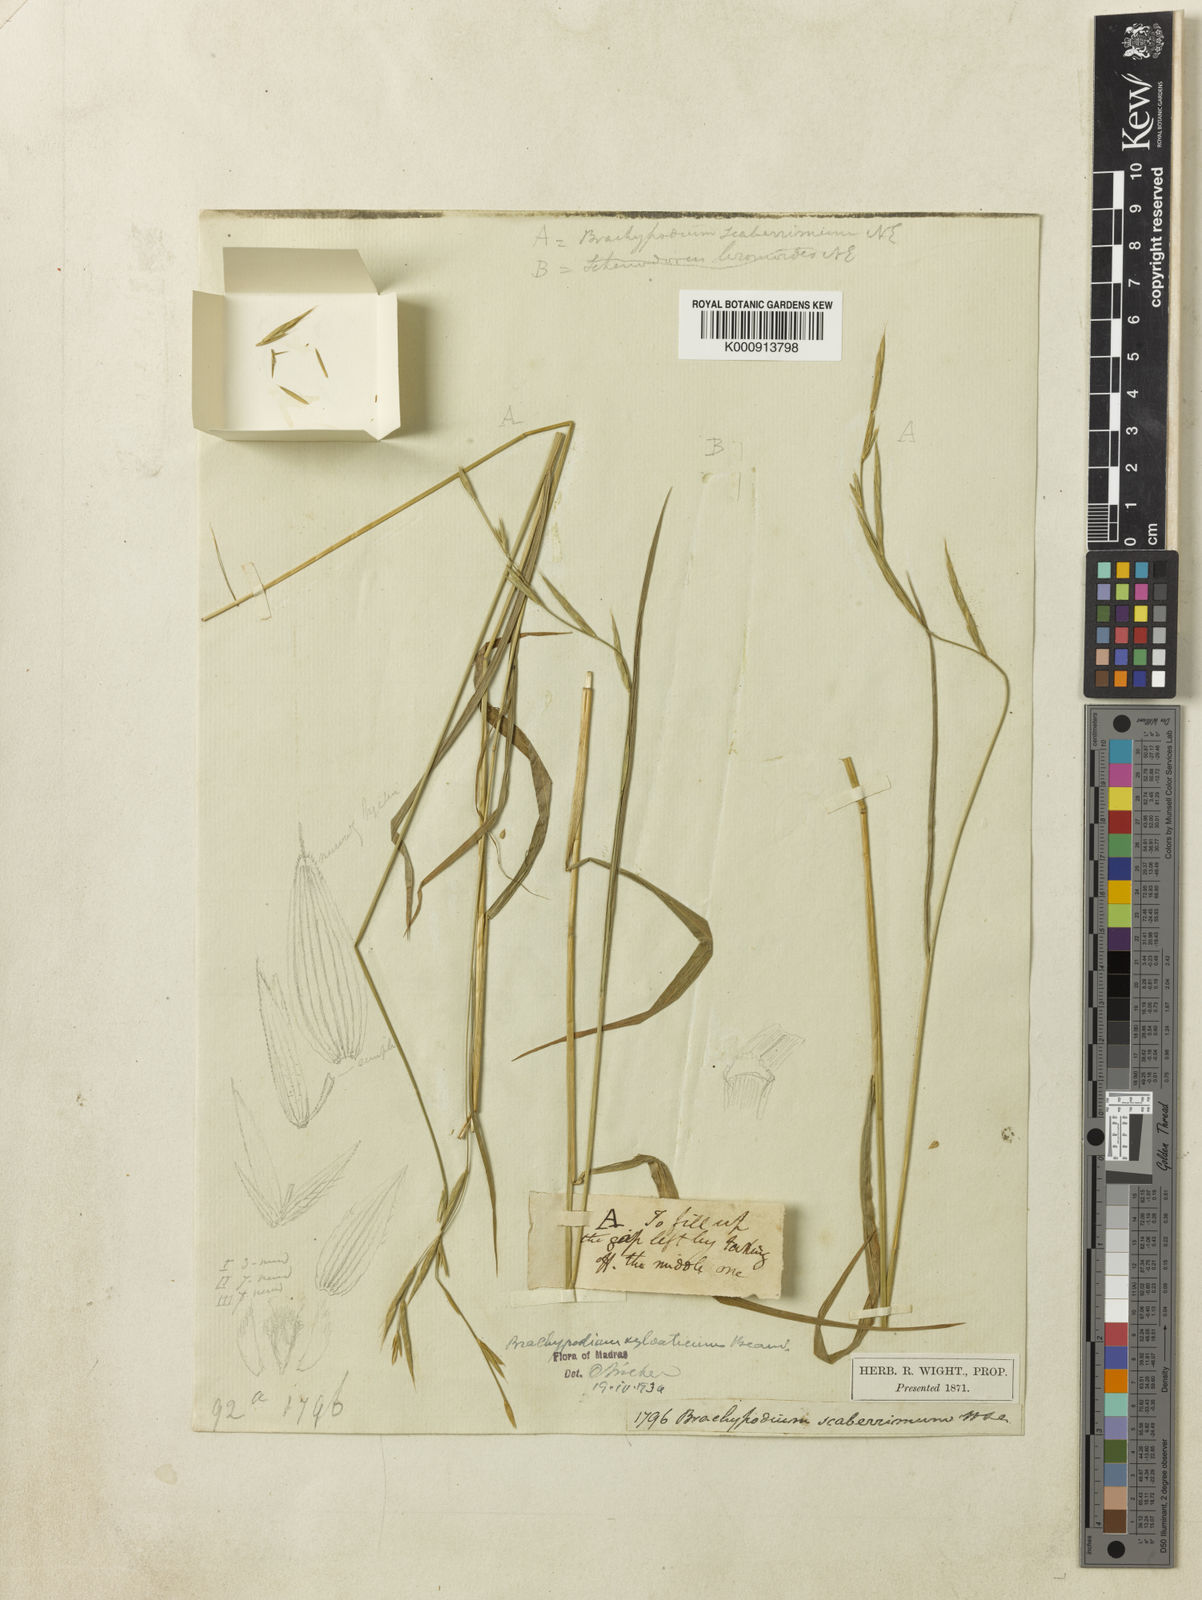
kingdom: Plantae
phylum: Tracheophyta
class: Liliopsida
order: Poales
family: Poaceae
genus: Brachypodium
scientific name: Brachypodium sylvaticum
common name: False-brome
